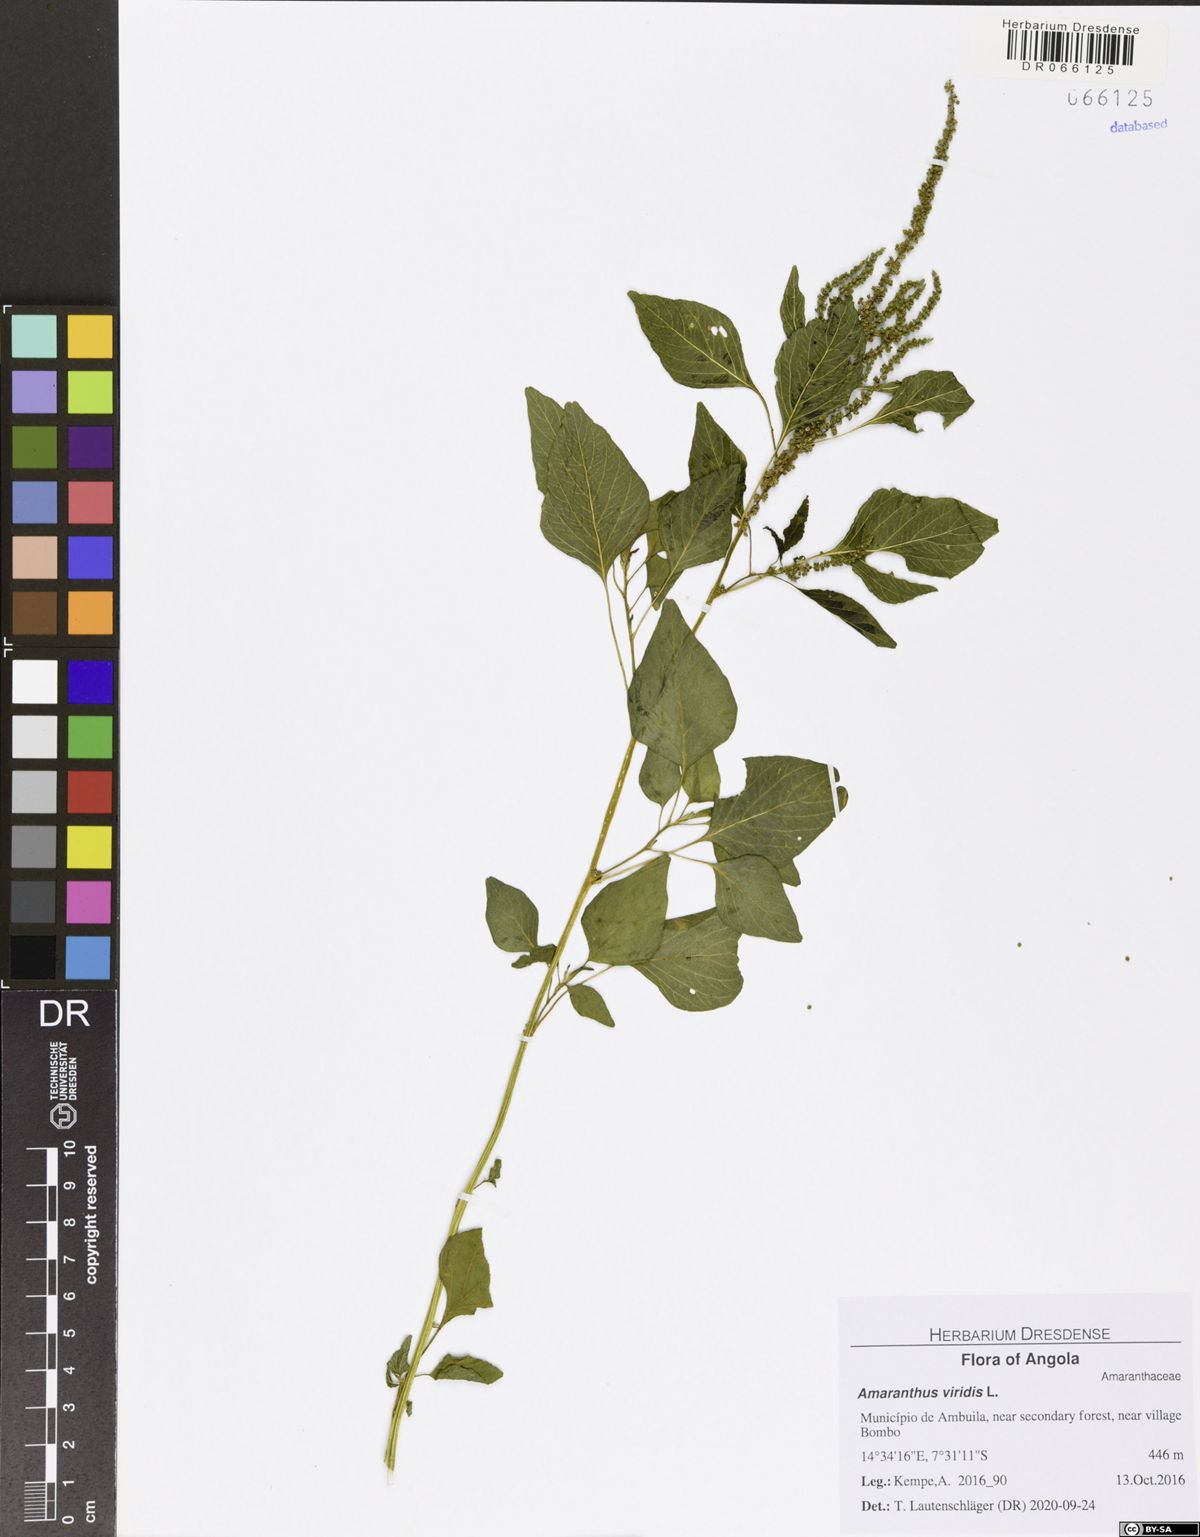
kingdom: Plantae
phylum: Tracheophyta
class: Magnoliopsida
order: Caryophyllales
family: Amaranthaceae
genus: Amaranthus
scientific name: Amaranthus viridis
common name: Slender amaranth
